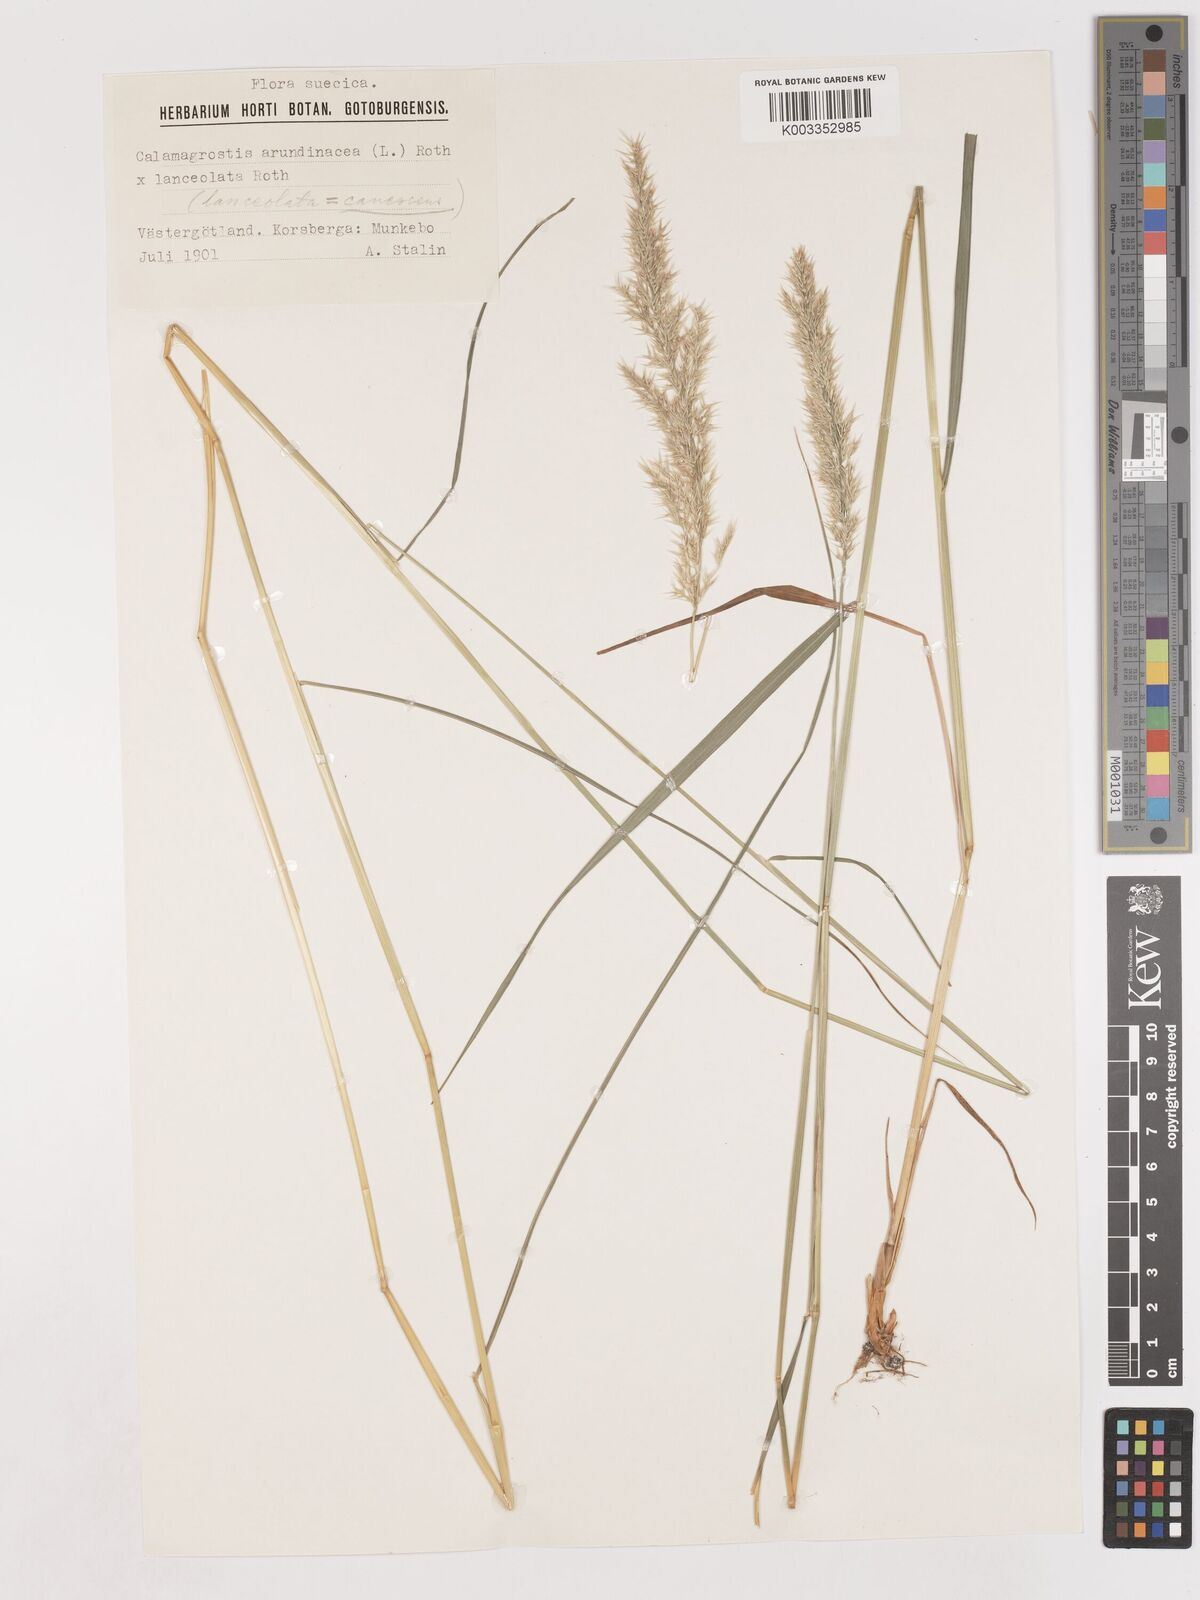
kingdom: Plantae
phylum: Tracheophyta
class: Liliopsida
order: Poales
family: Poaceae
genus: Calamagrostis
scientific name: Calamagrostis canescens
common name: Purple small-reed
